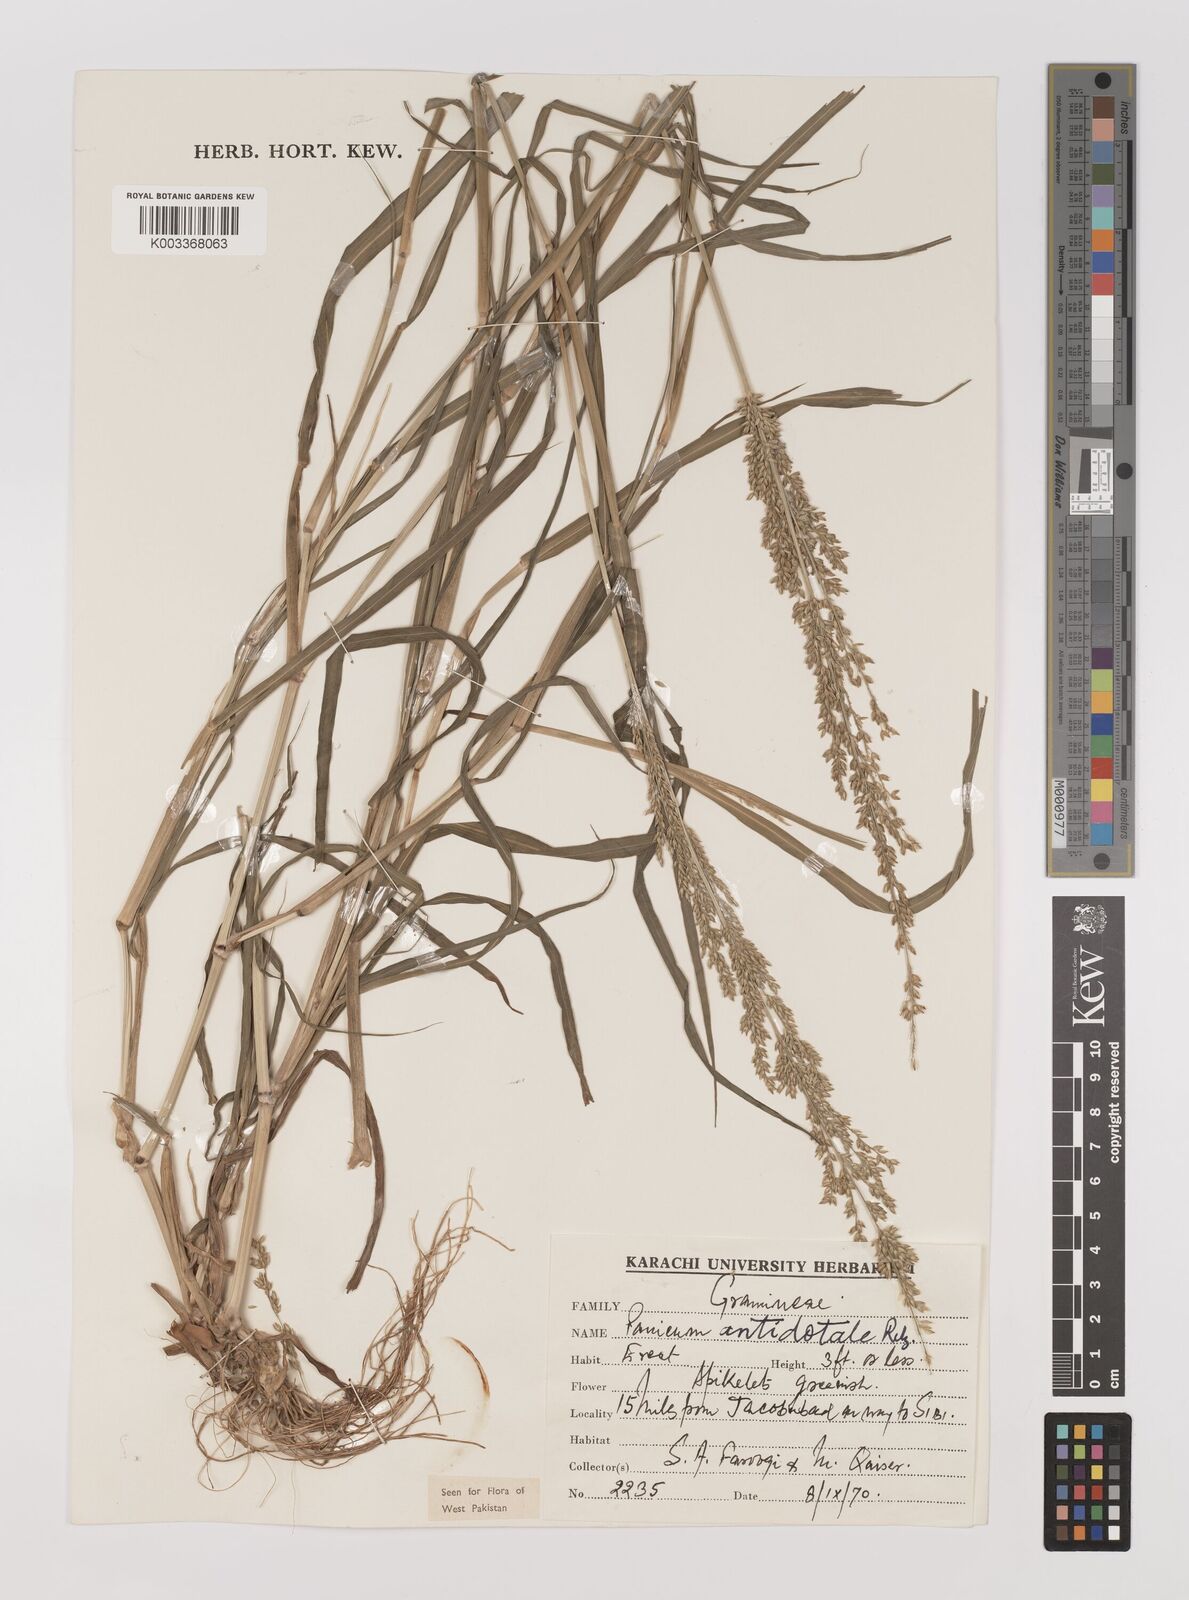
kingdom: Plantae
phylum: Tracheophyta
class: Liliopsida
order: Poales
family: Poaceae
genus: Panicum
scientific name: Panicum antidotale
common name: Blue panicum
